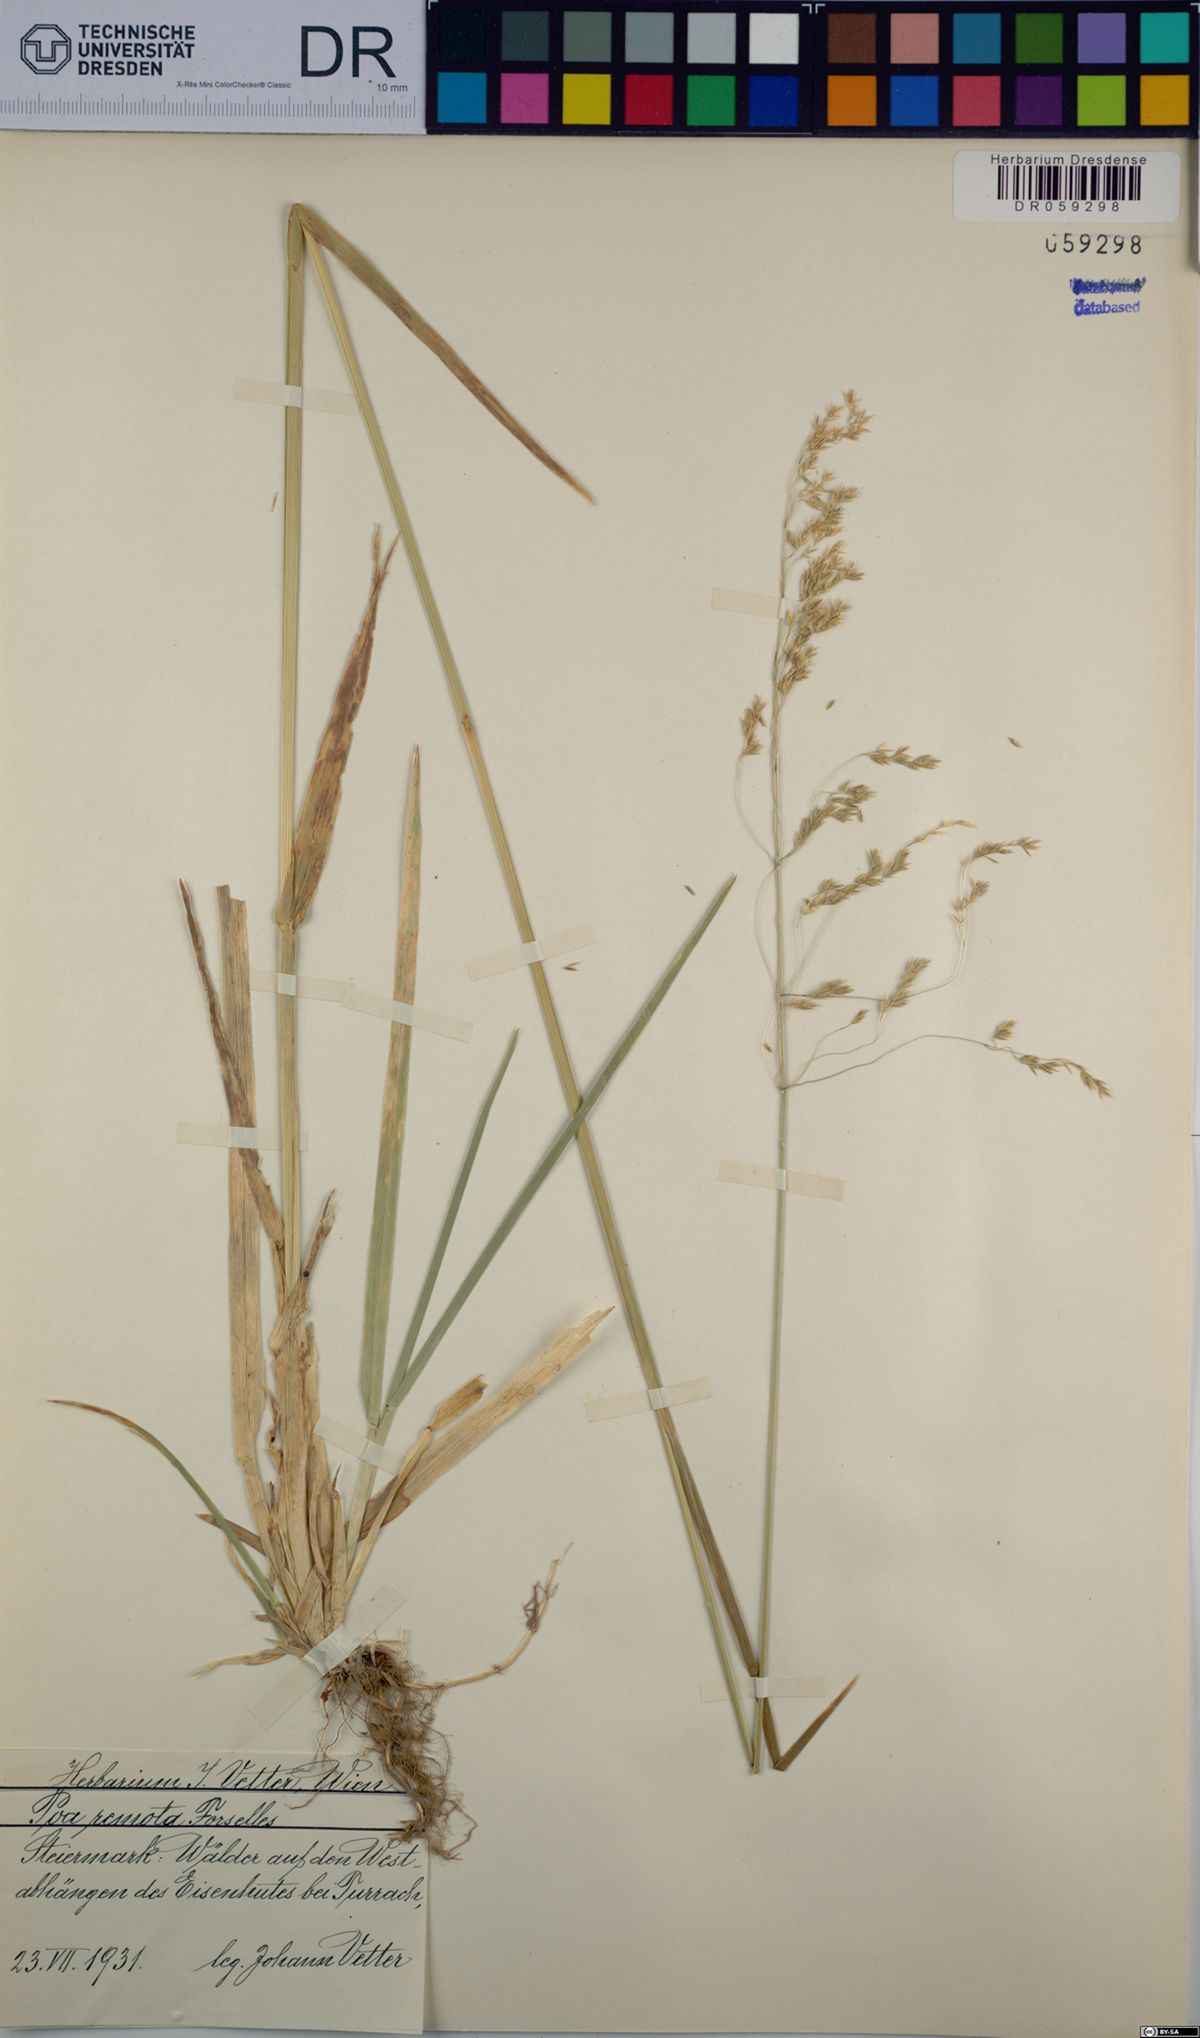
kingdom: Plantae
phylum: Tracheophyta
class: Liliopsida
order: Poales
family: Poaceae
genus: Poa
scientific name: Poa remota
